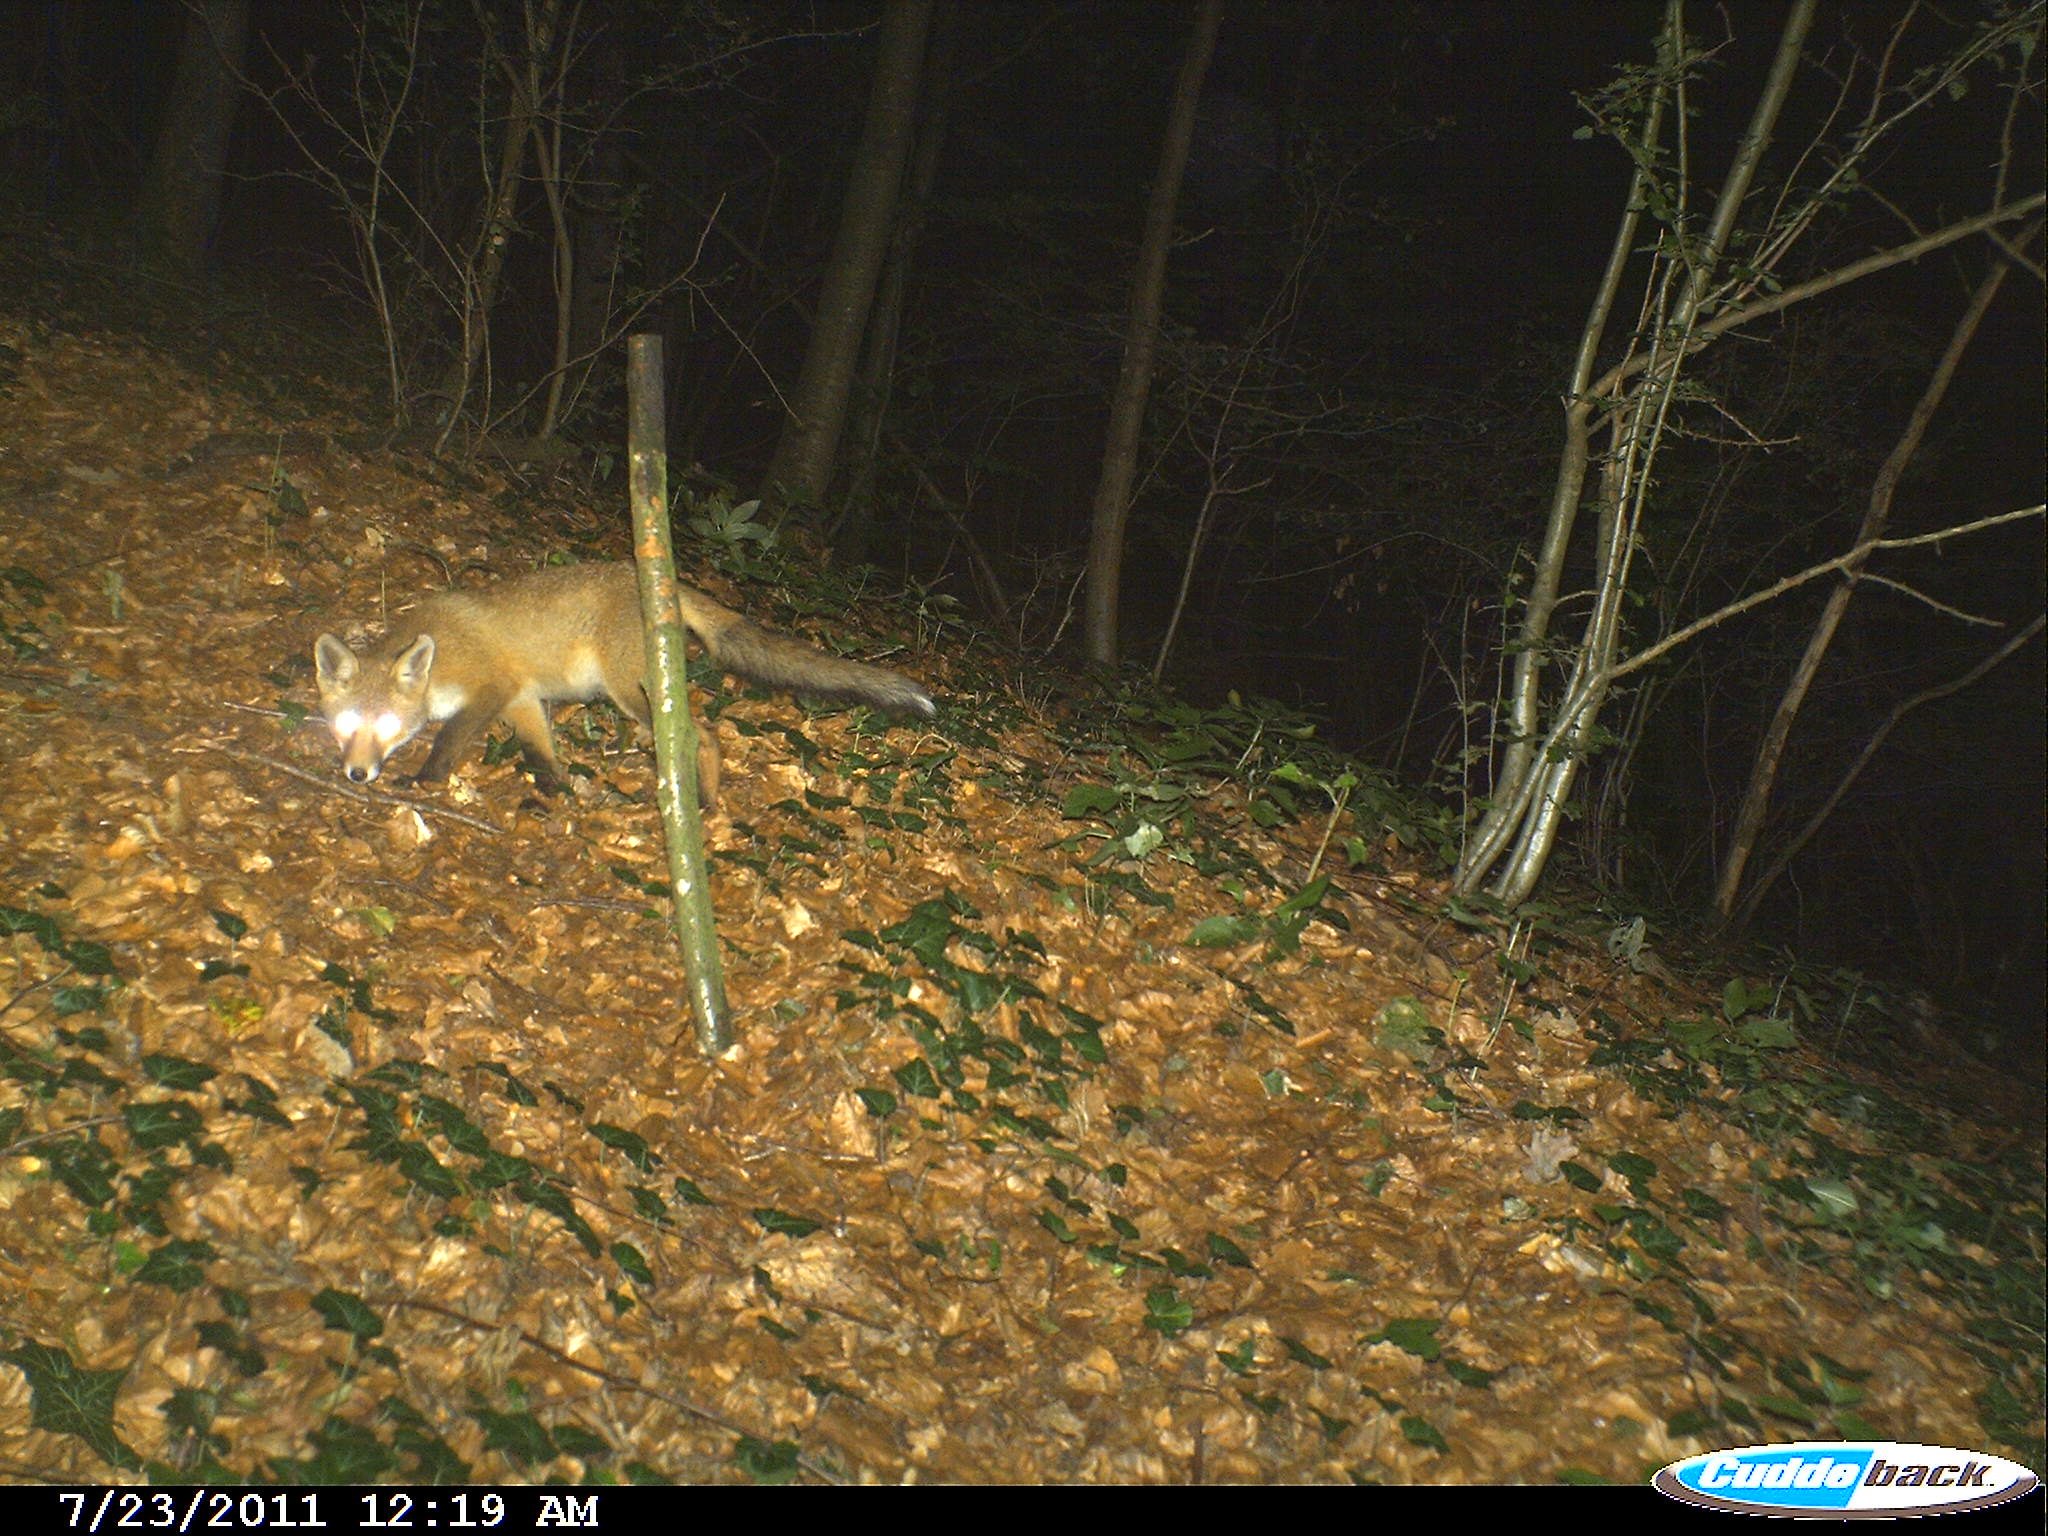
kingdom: Animalia
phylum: Chordata
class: Mammalia
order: Carnivora
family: Canidae
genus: Vulpes
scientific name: Vulpes vulpes
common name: Red fox
